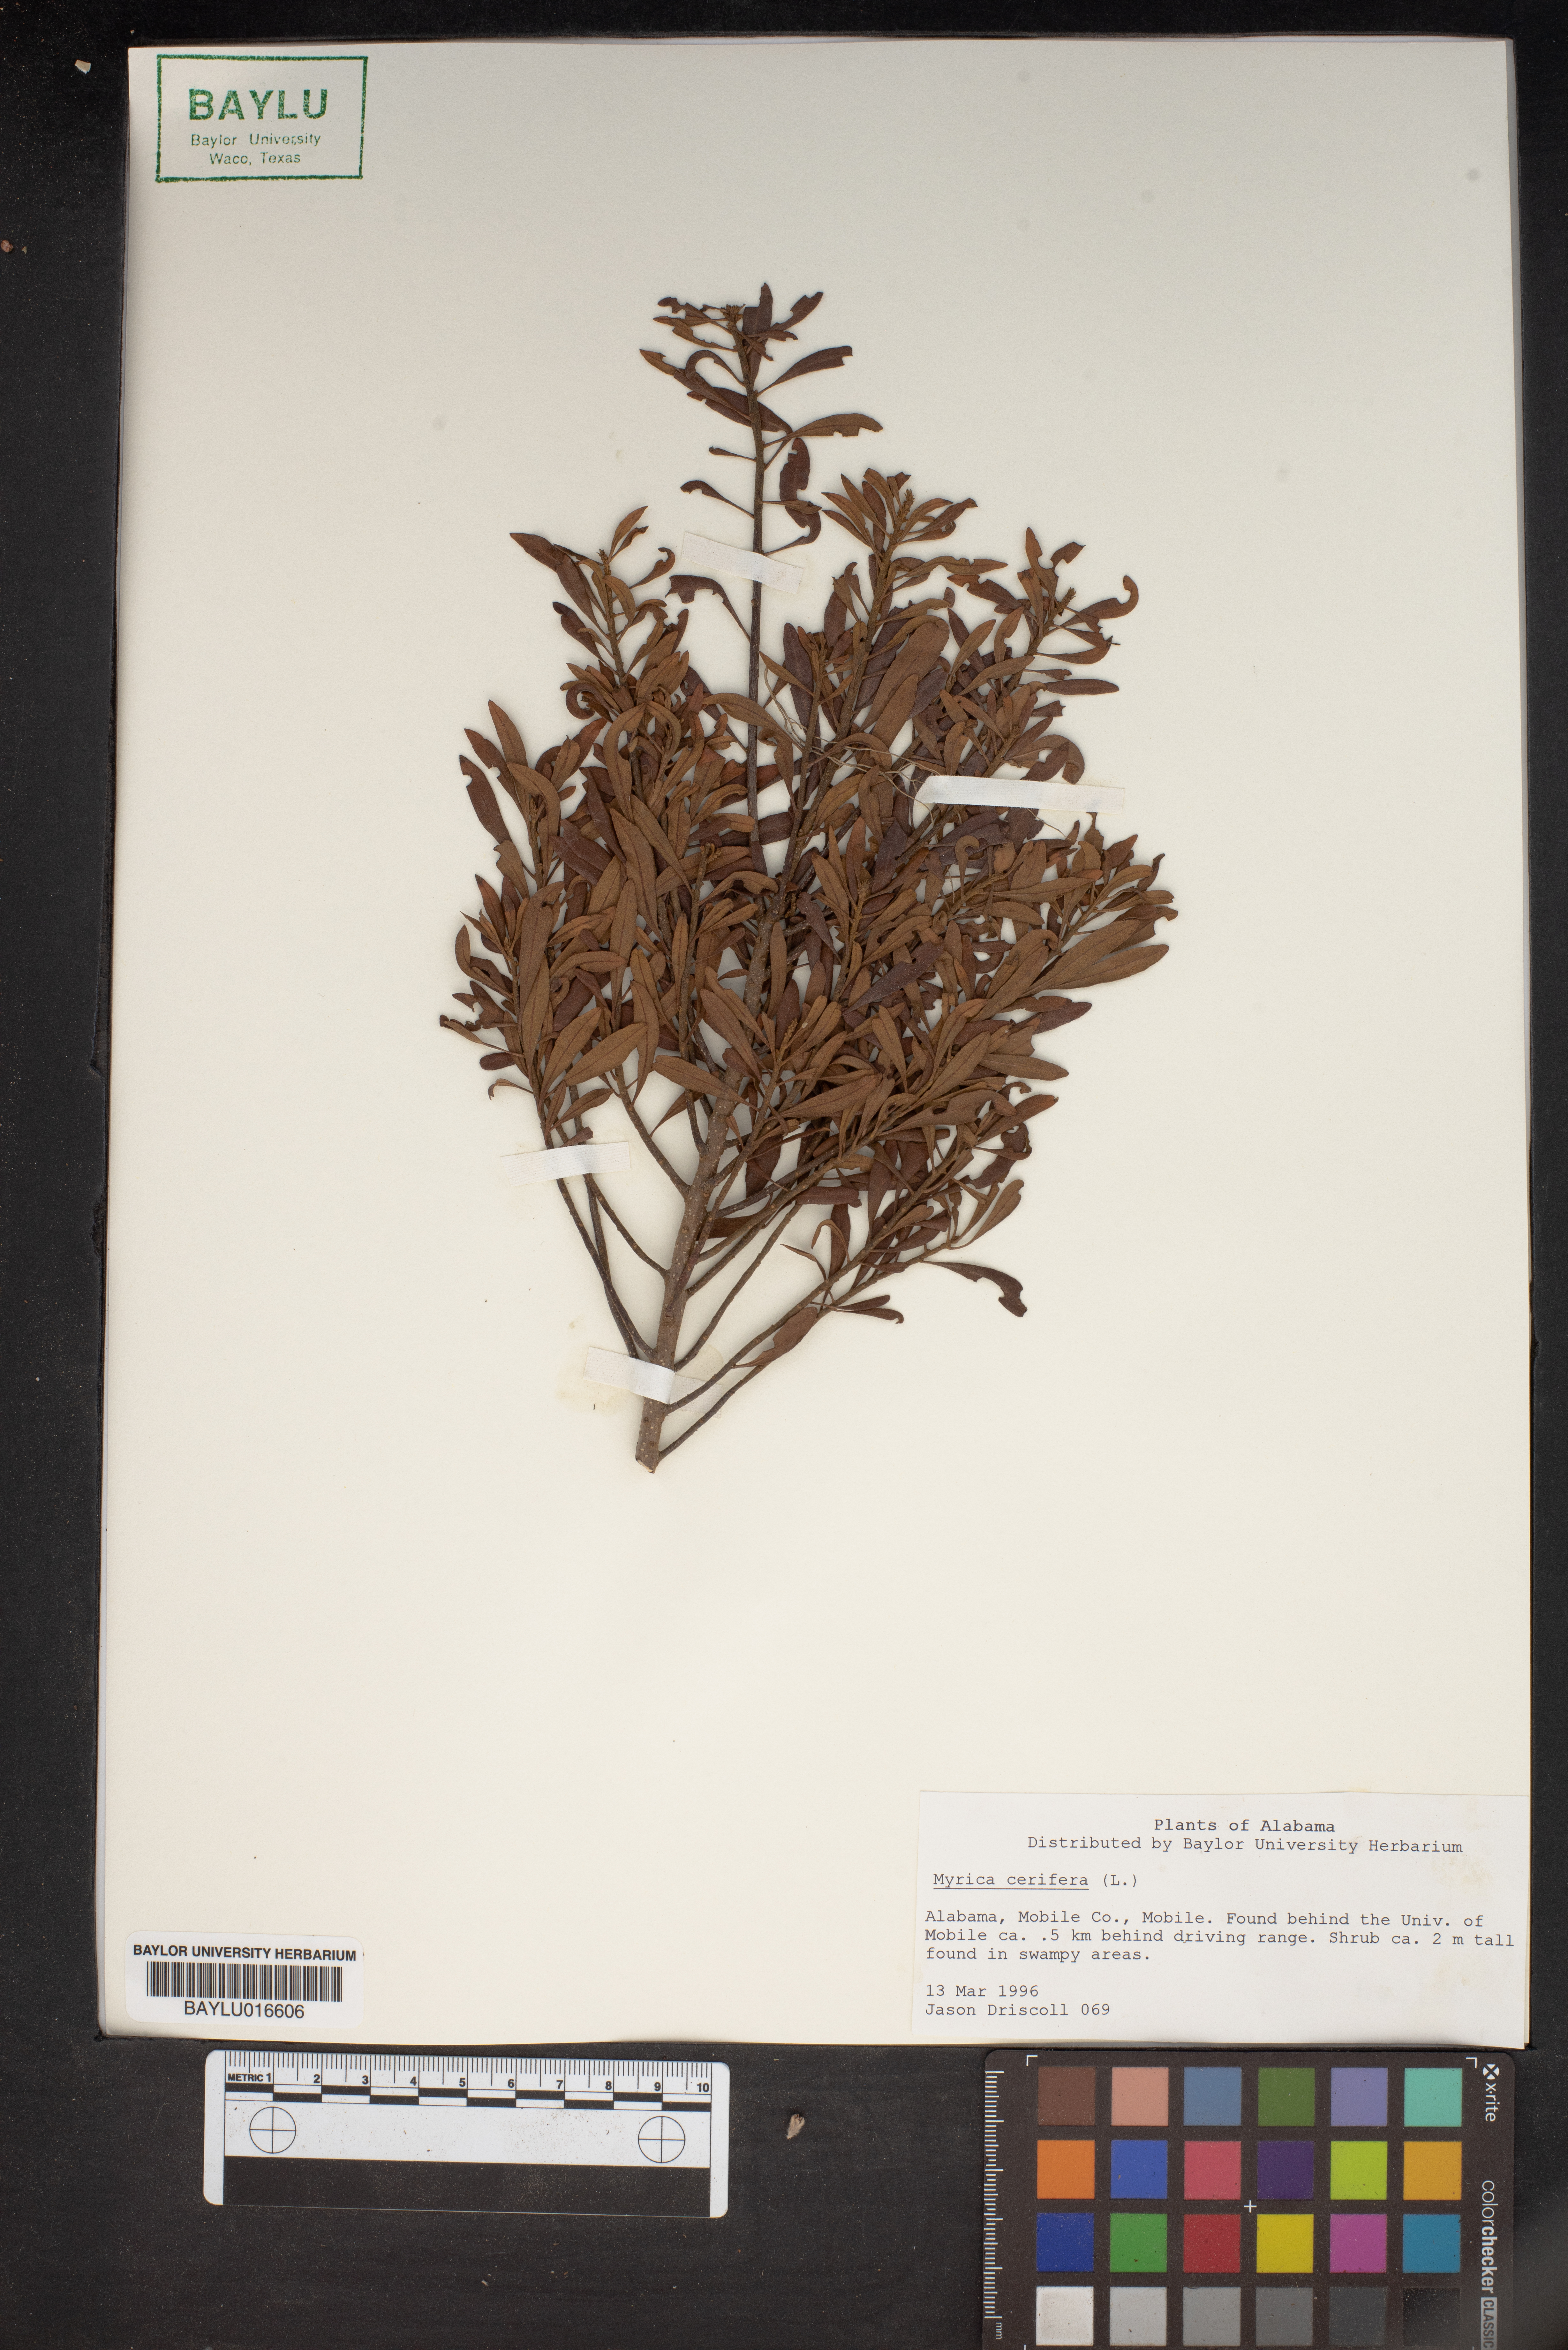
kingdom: Plantae
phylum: Tracheophyta
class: Magnoliopsida
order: Fagales
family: Myricaceae
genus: Morella
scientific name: Morella cerifera
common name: Wax myrtle
